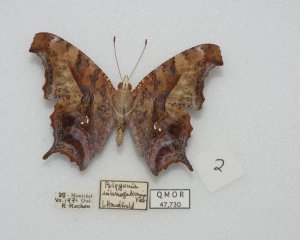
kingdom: Animalia
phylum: Arthropoda
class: Insecta
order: Lepidoptera
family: Nymphalidae
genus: Polygonia
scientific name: Polygonia interrogationis
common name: Question Mark
